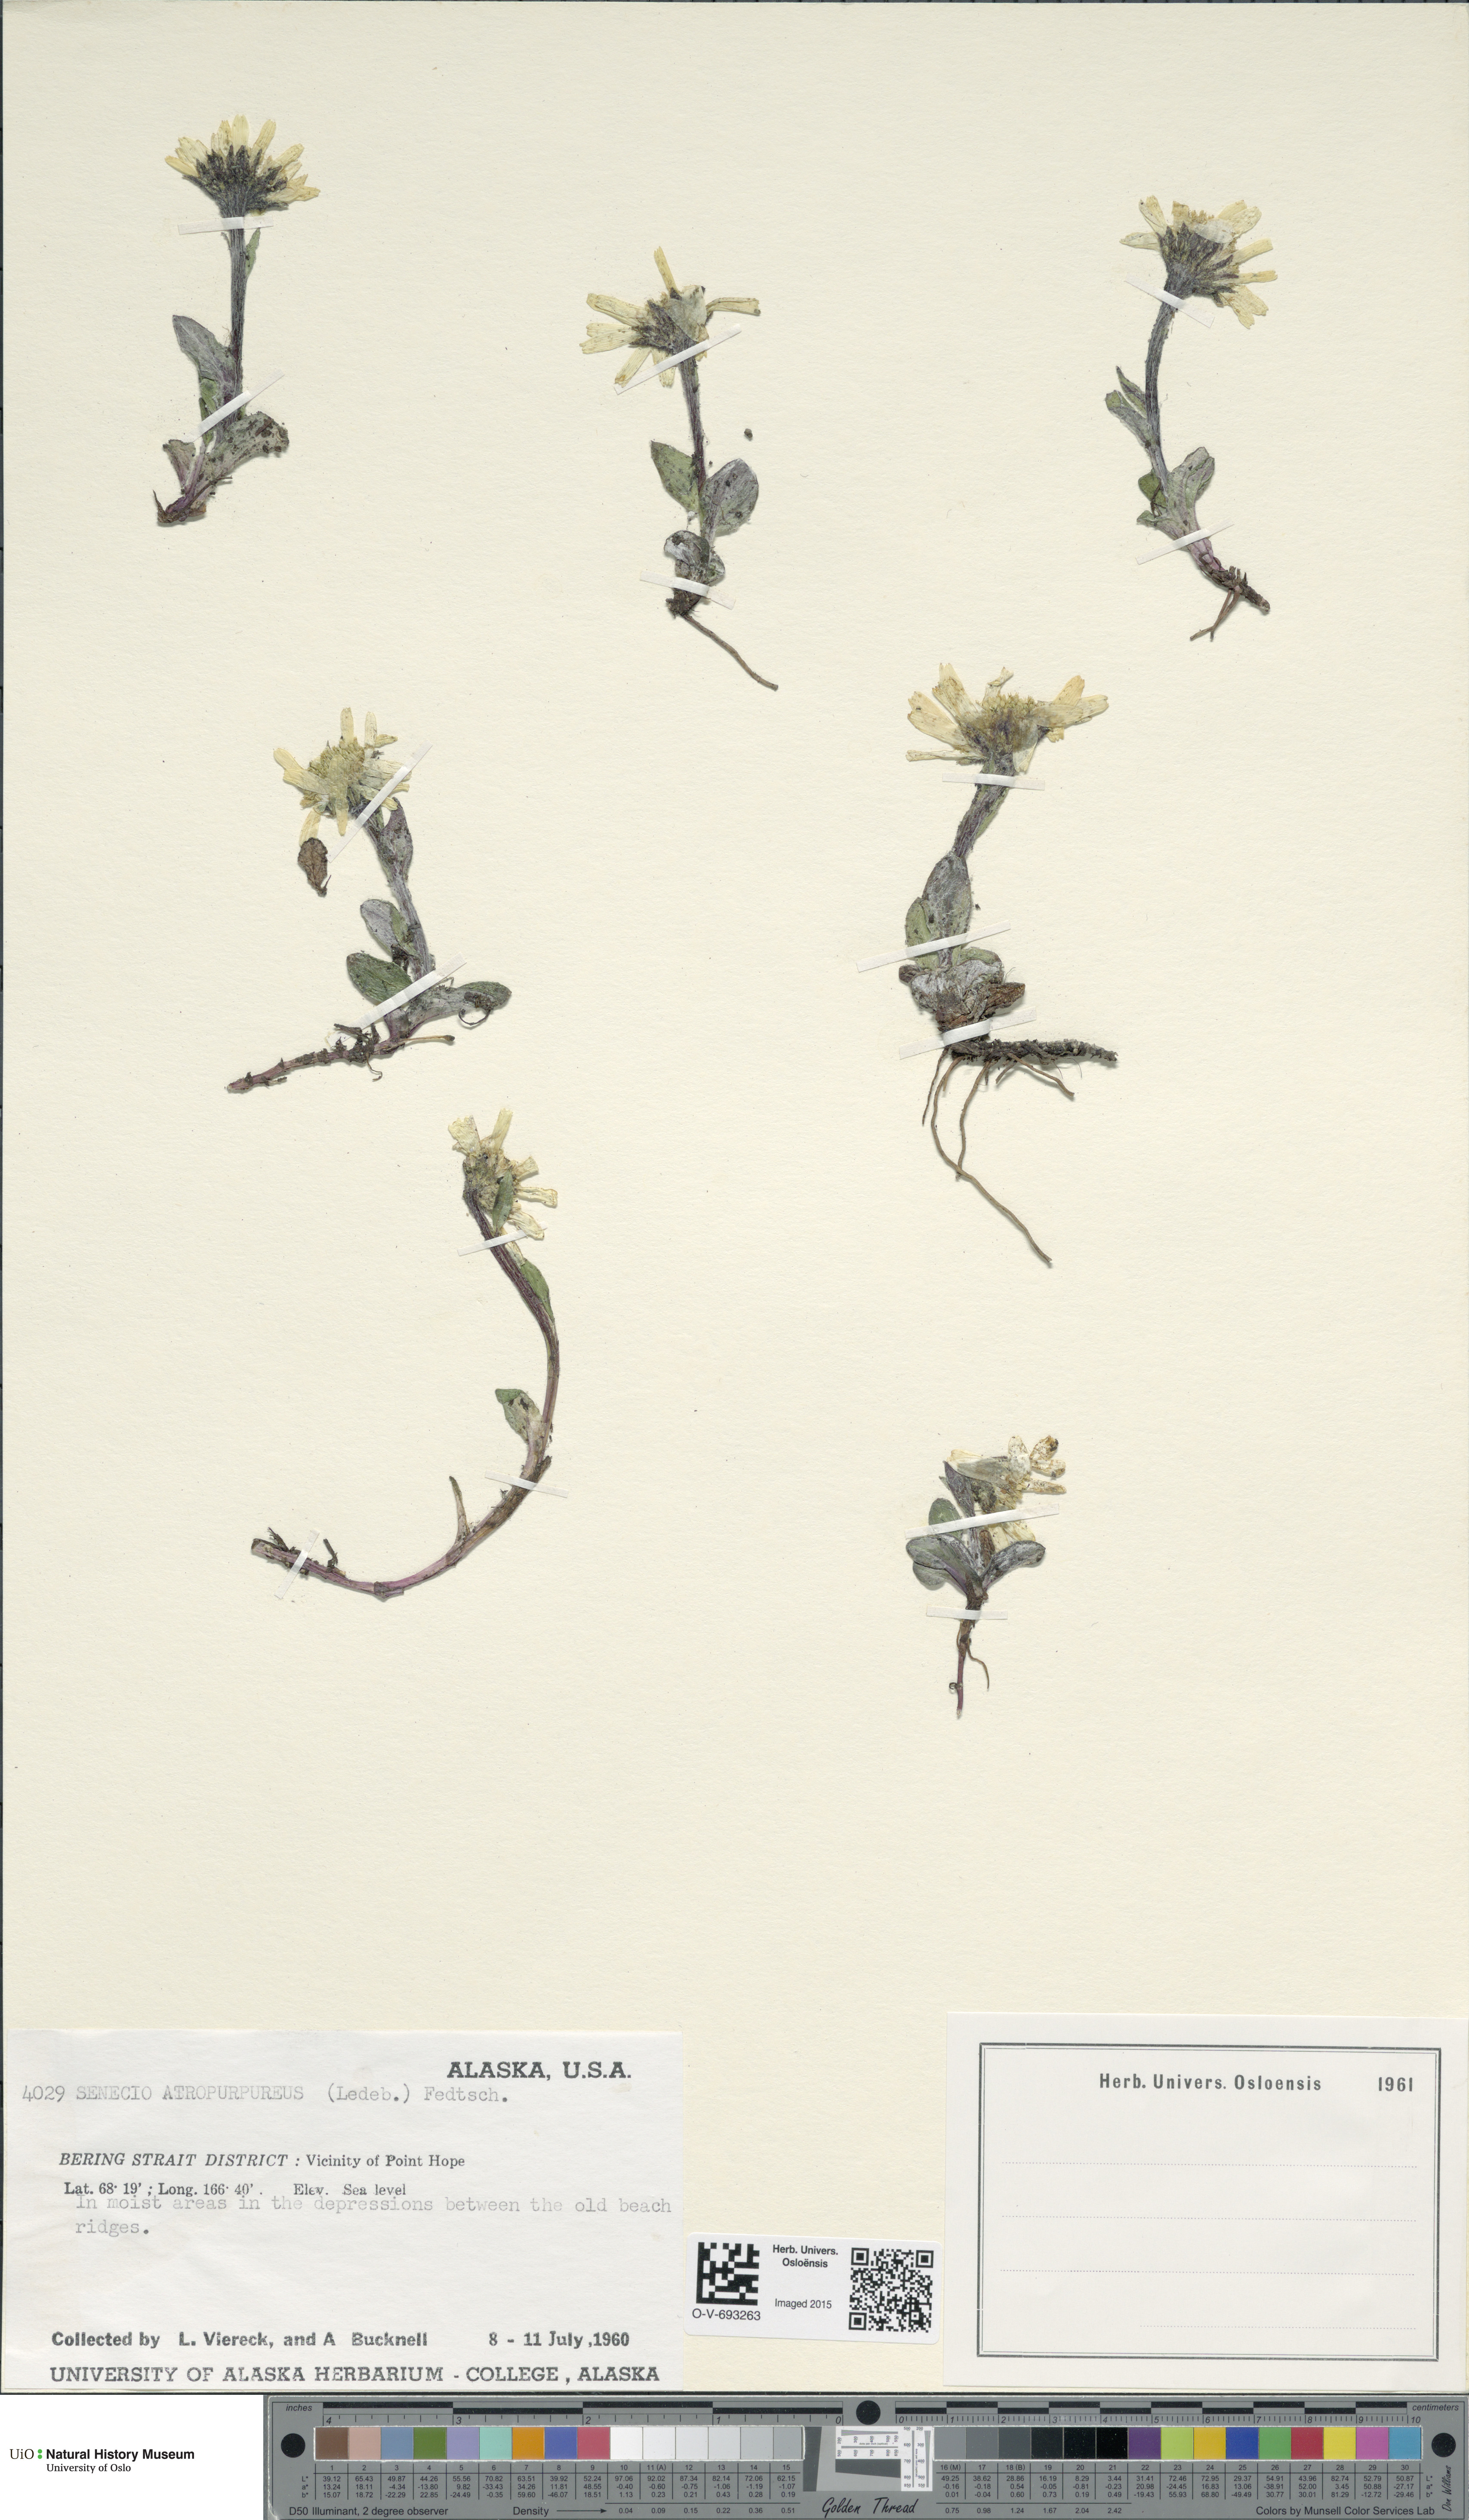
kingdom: Plantae
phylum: Tracheophyta
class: Magnoliopsida
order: Asterales
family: Asteraceae
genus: Tephroseris
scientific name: Tephroseris integrifolia
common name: Field fleawort
